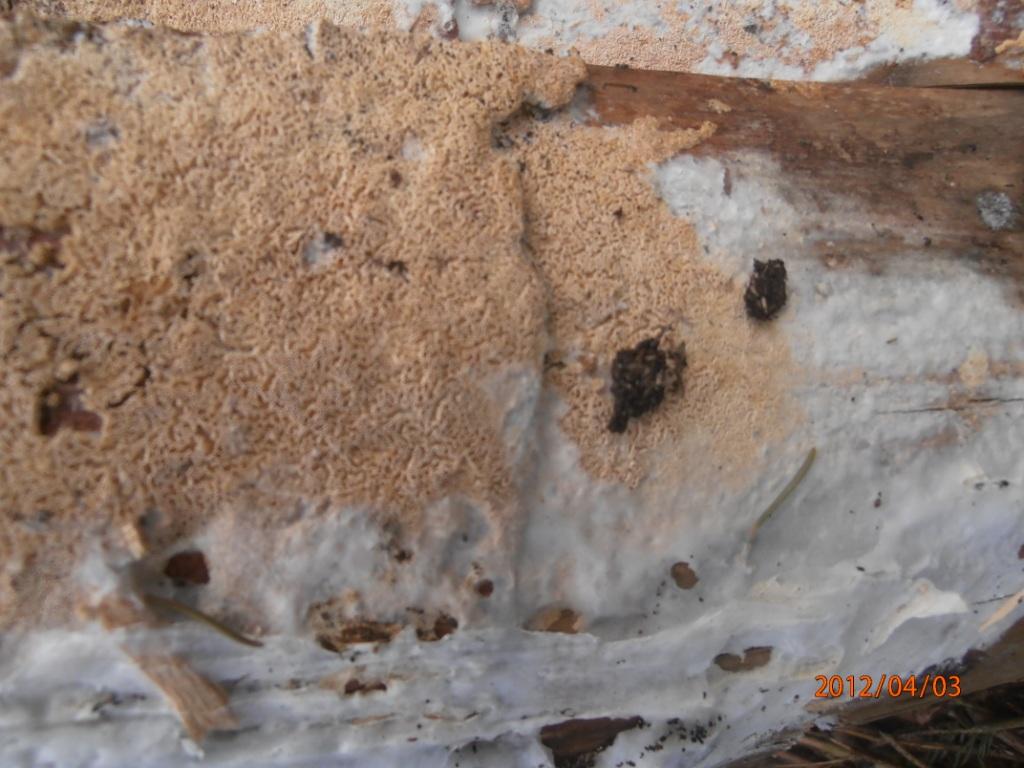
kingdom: Fungi
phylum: Basidiomycota
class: Agaricomycetes
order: Hymenochaetales
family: Schizoporaceae
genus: Xylodon
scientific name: Xylodon subtropicus
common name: labyrint-tandsvamp
